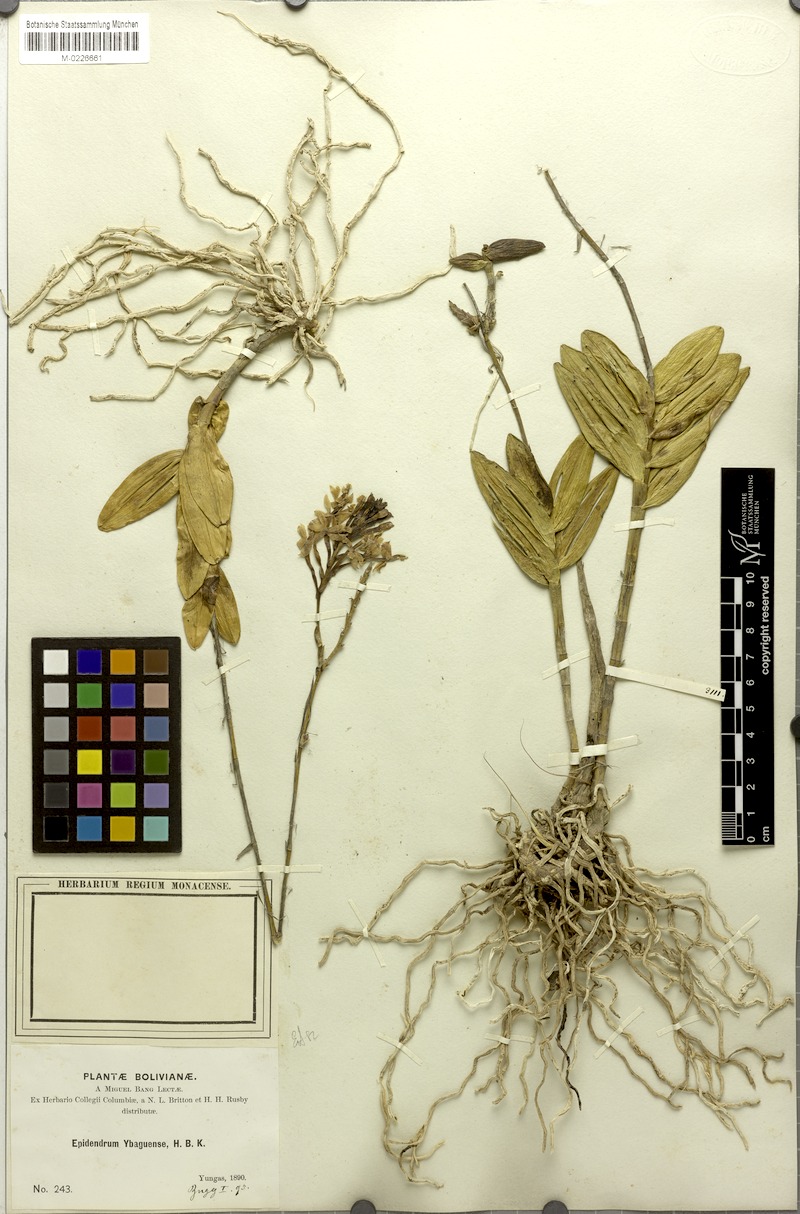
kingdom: Plantae
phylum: Tracheophyta
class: Liliopsida
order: Asparagales
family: Orchidaceae
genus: Epidendrum
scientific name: Epidendrum ibaguense
